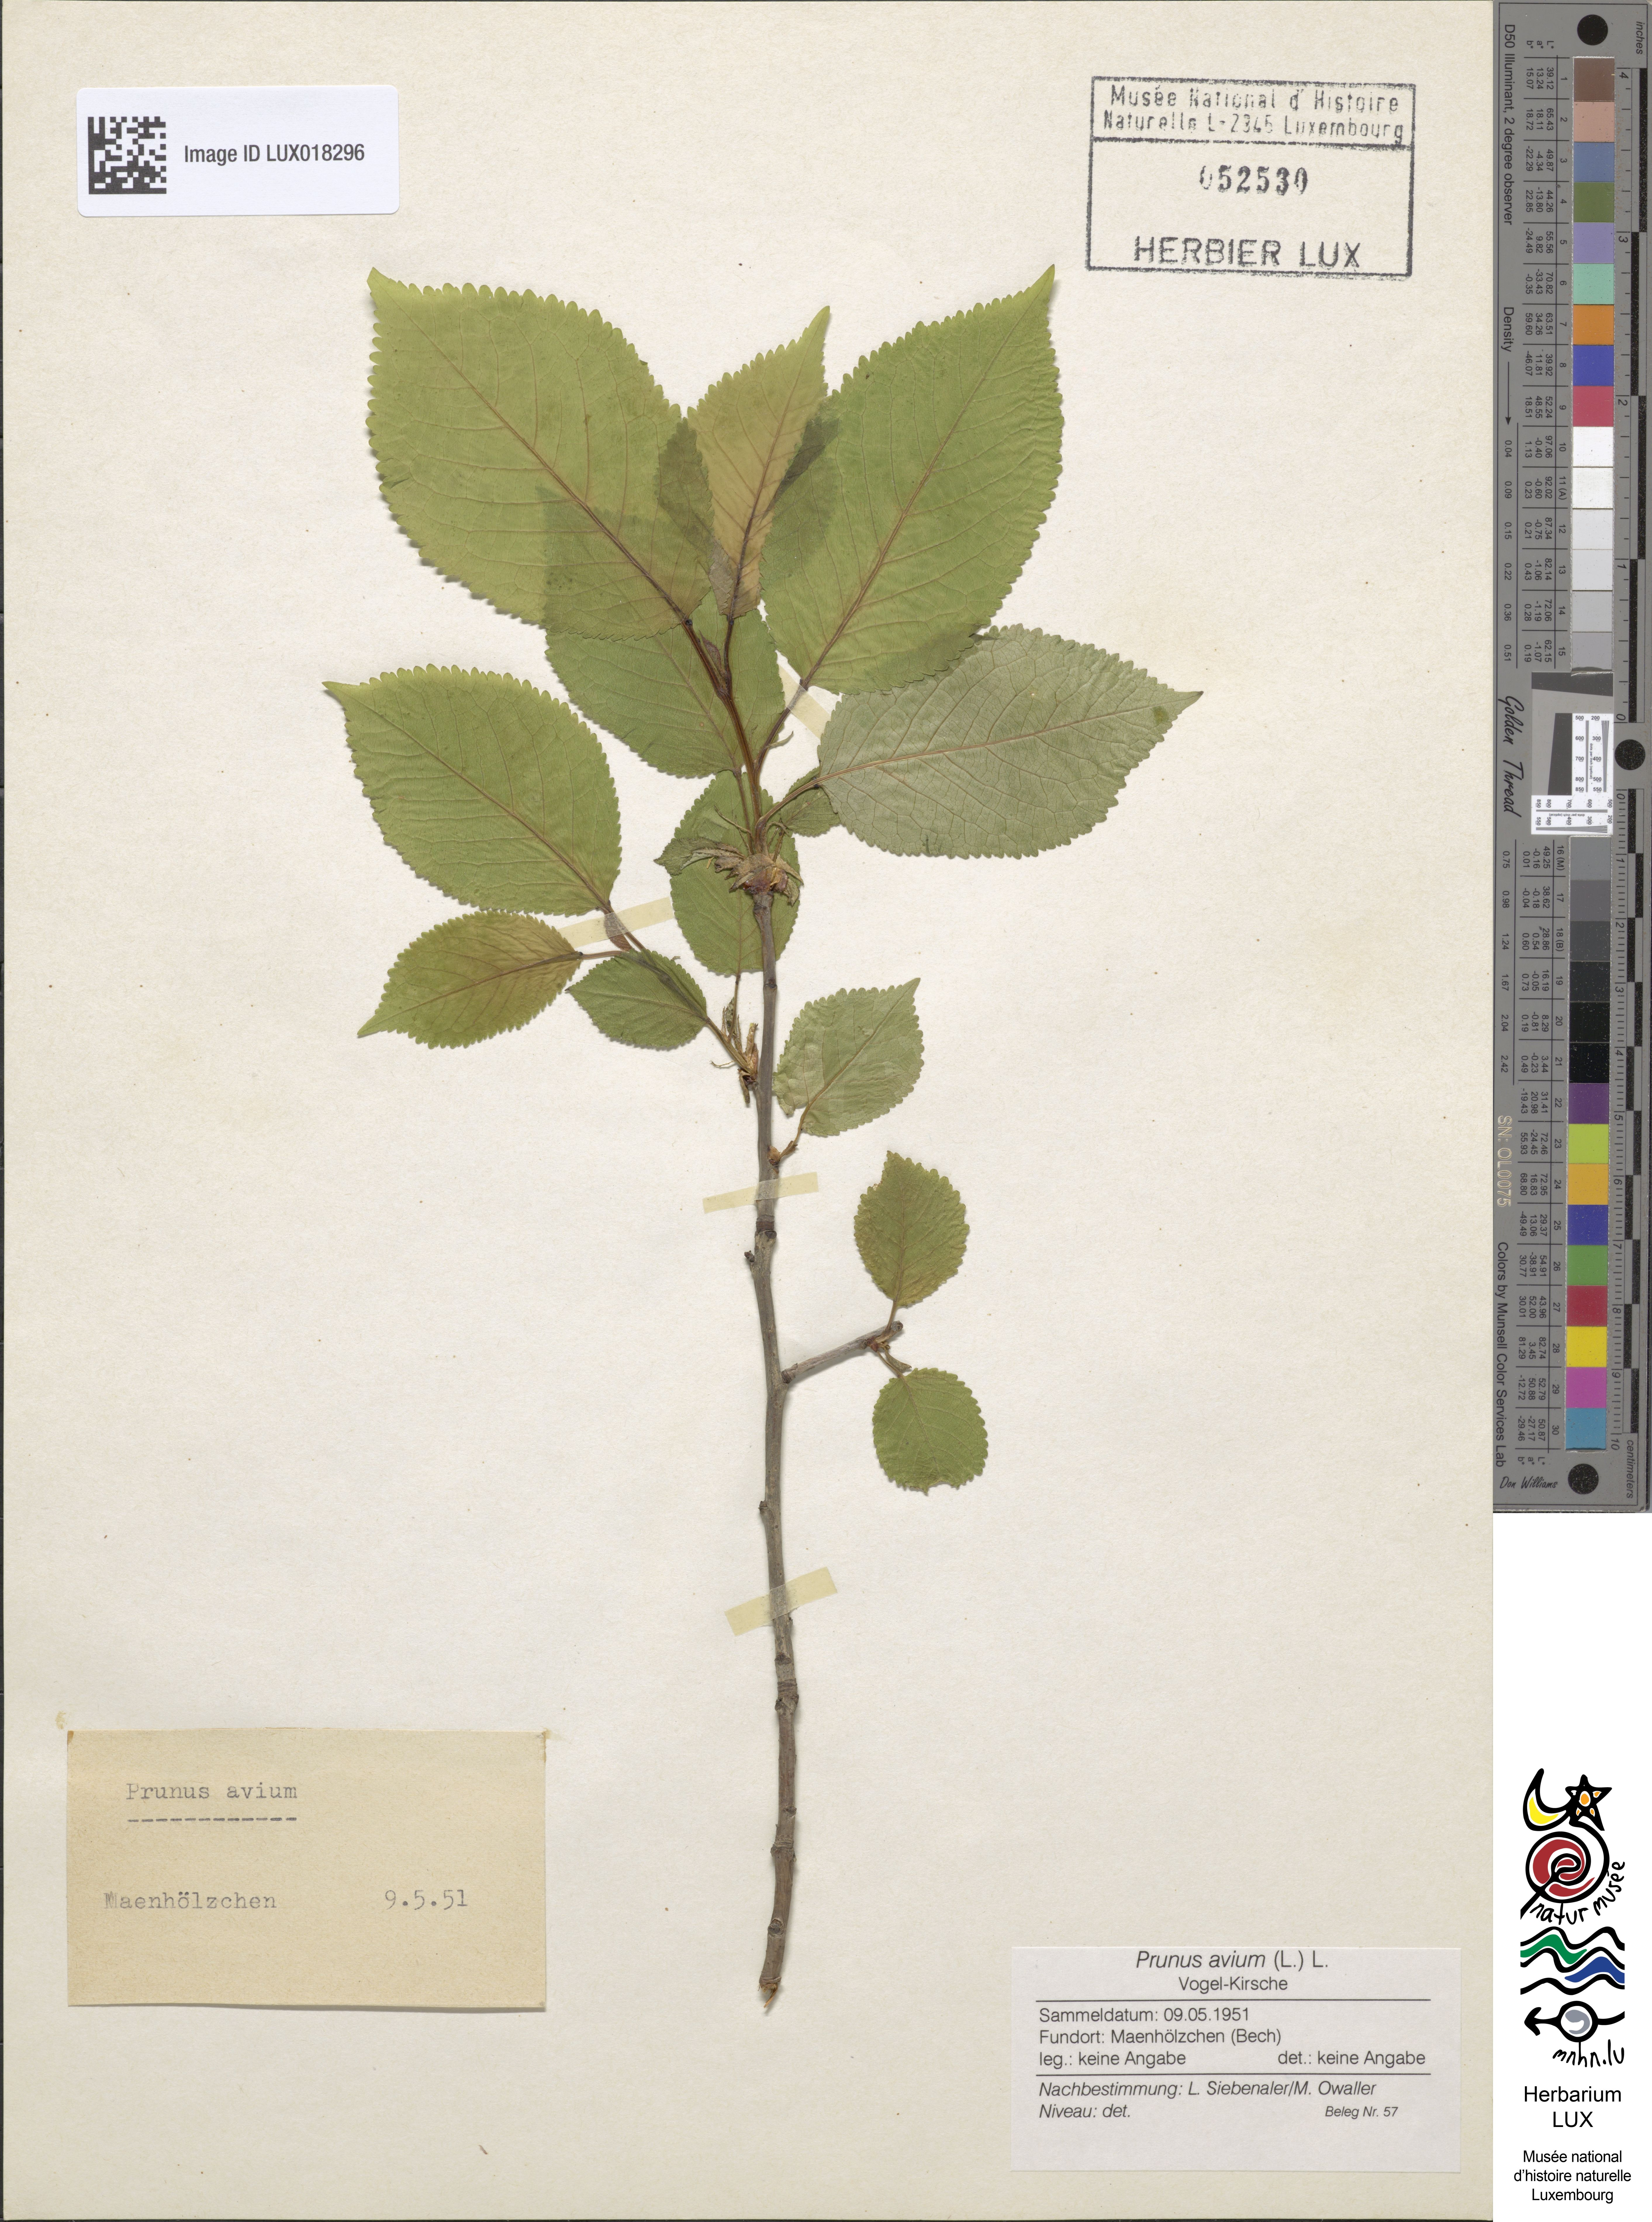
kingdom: Plantae
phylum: Tracheophyta
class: Magnoliopsida
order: Rosales
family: Rosaceae
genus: Prunus
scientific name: Prunus avium
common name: Sweet cherry
